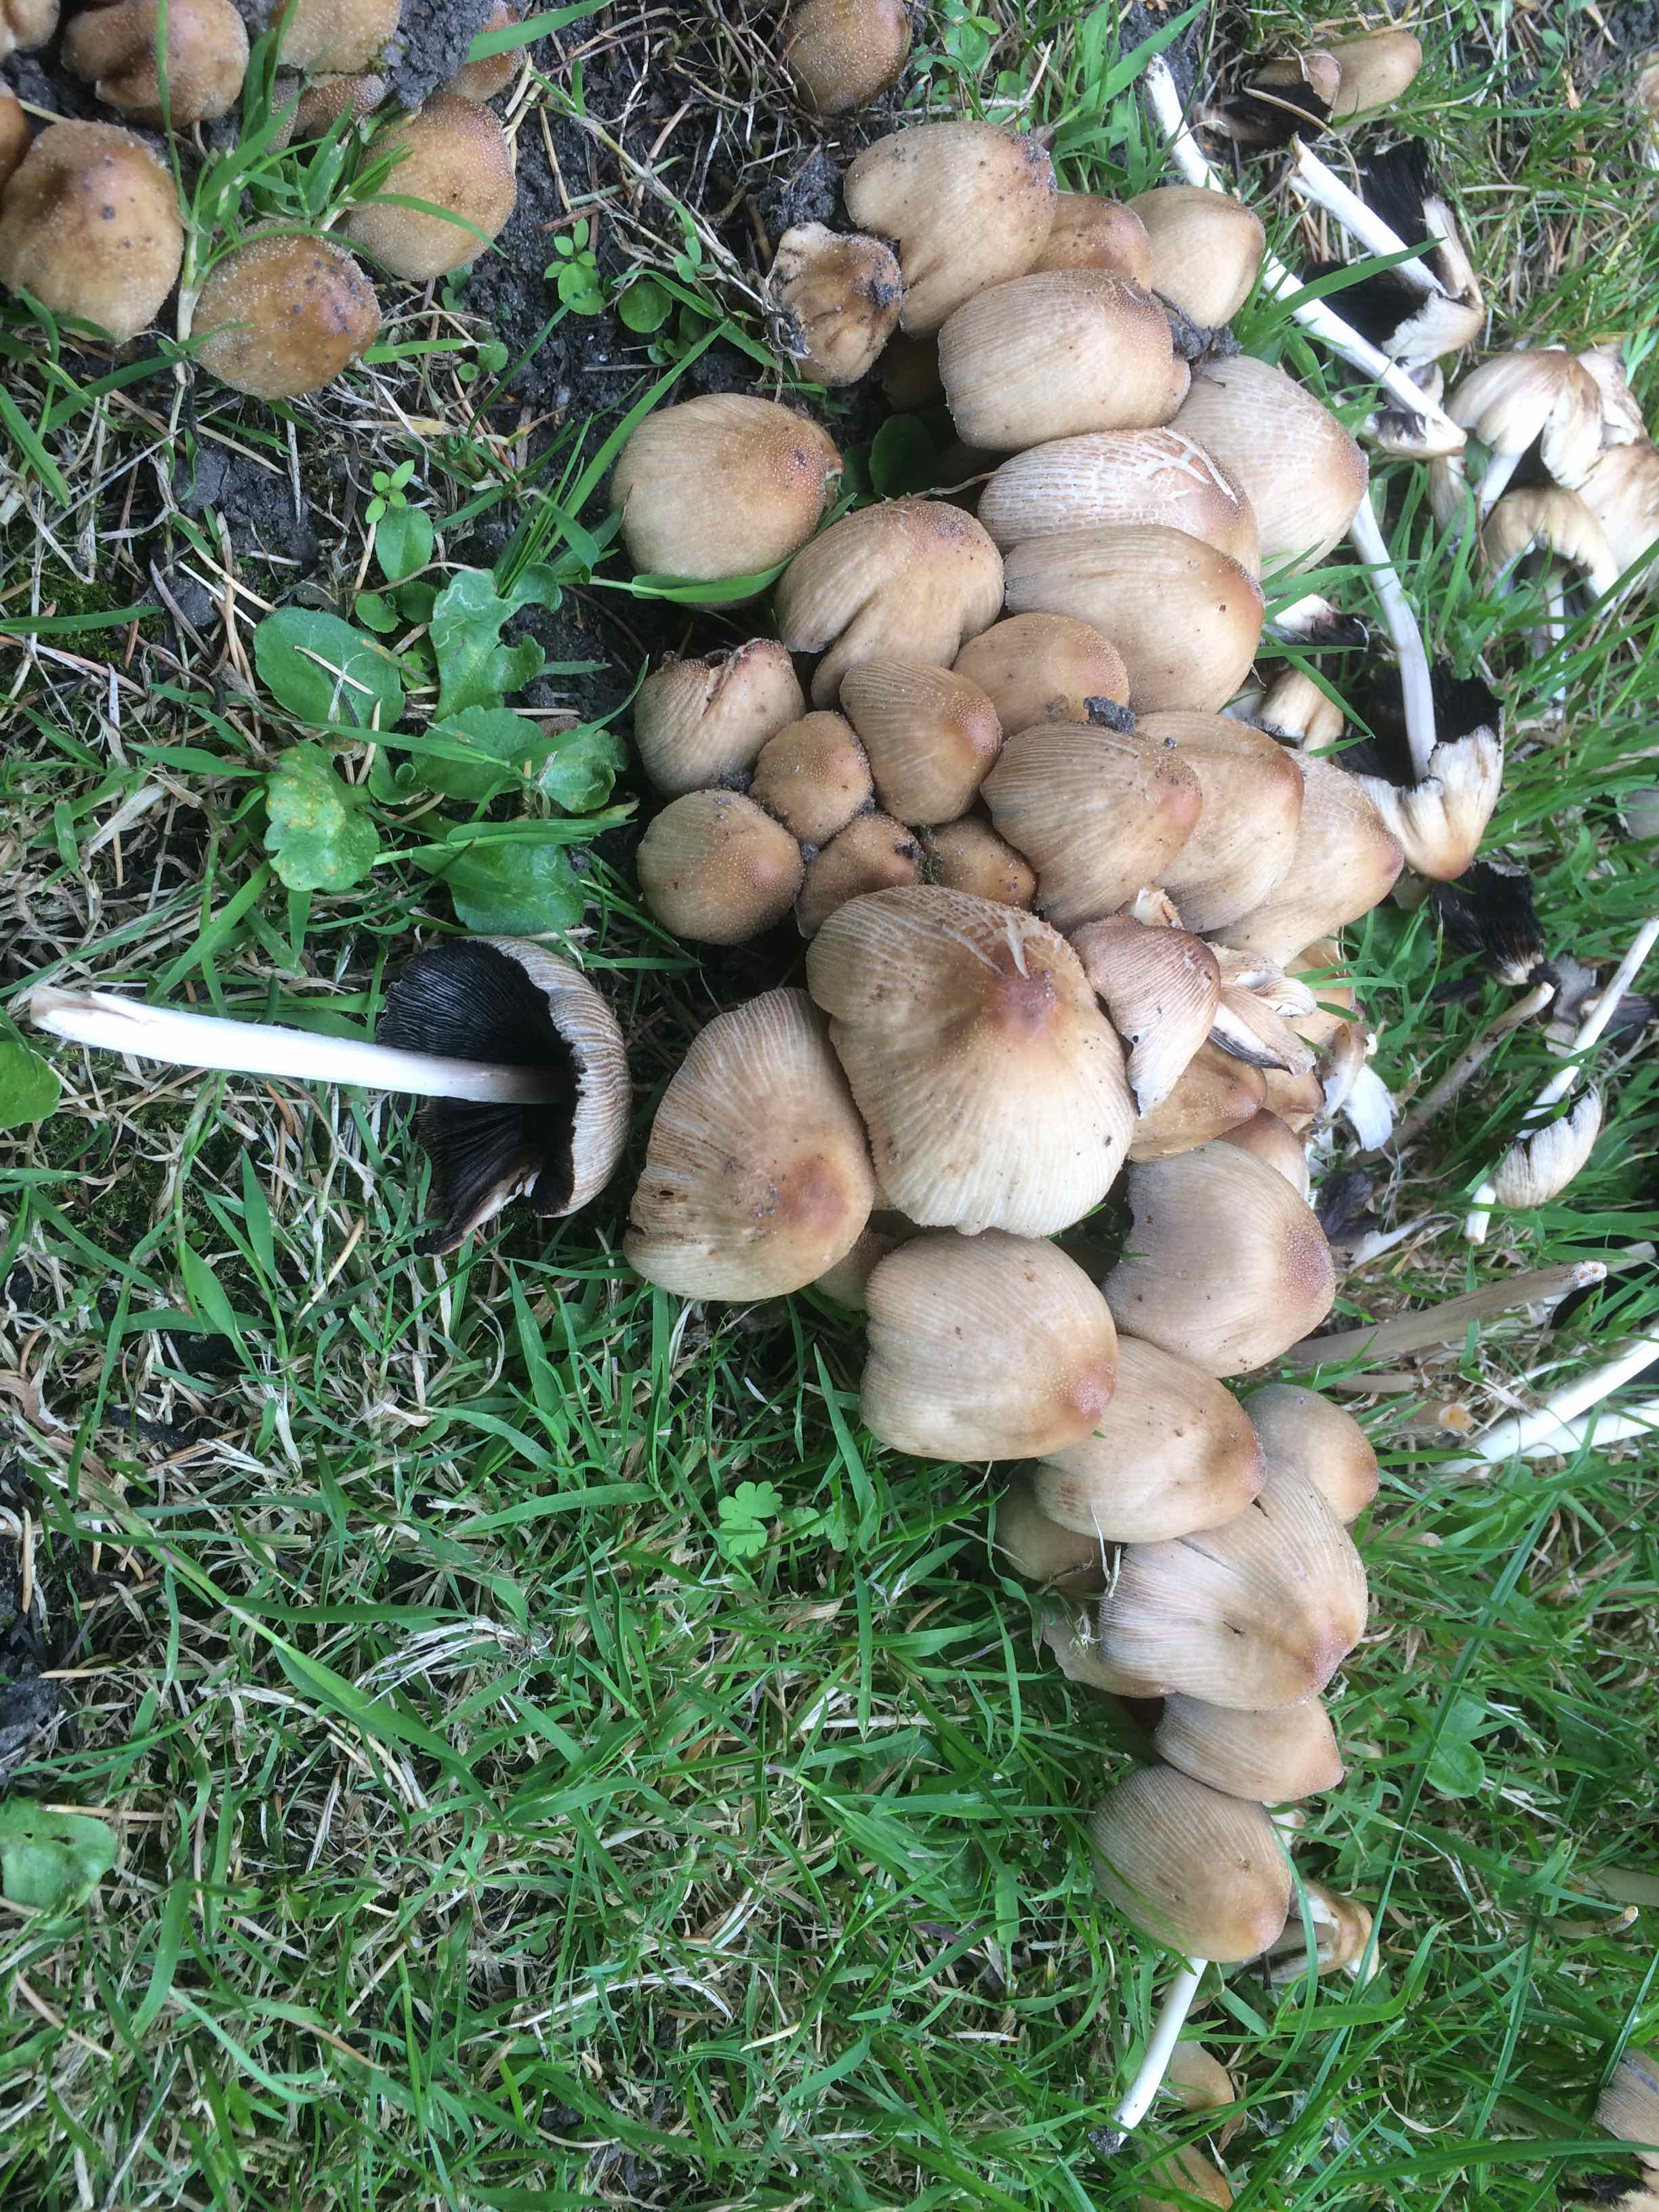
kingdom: Fungi
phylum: Basidiomycota
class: Agaricomycetes
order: Agaricales
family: Psathyrellaceae
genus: Coprinellus
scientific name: Coprinellus micaceus
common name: glimmer-blækhat
